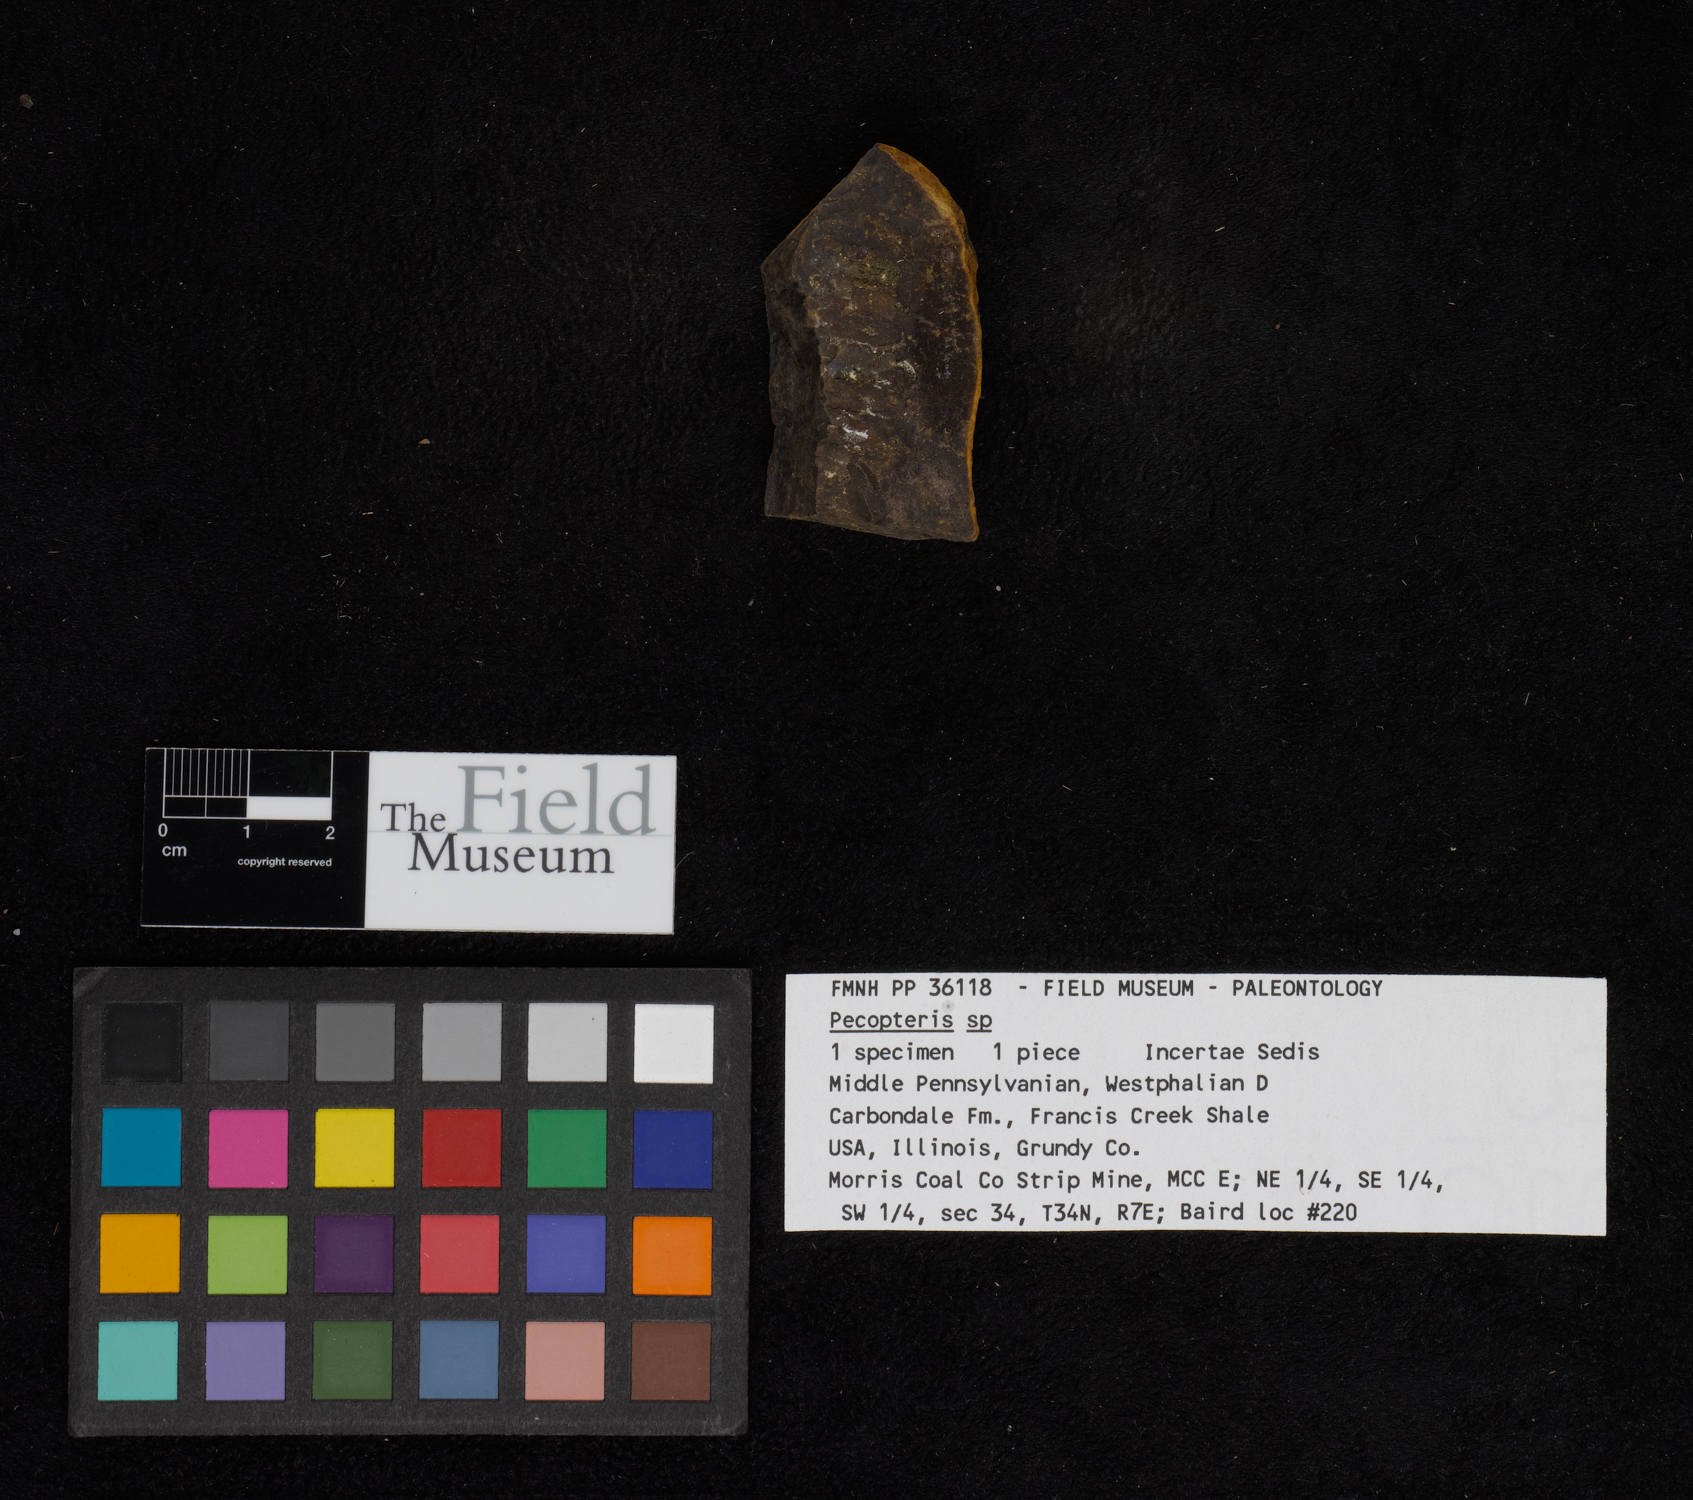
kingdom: Plantae
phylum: Tracheophyta
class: Polypodiopsida
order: Marattiales
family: Asterothecaceae
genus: Pecopteris
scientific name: Pecopteris
